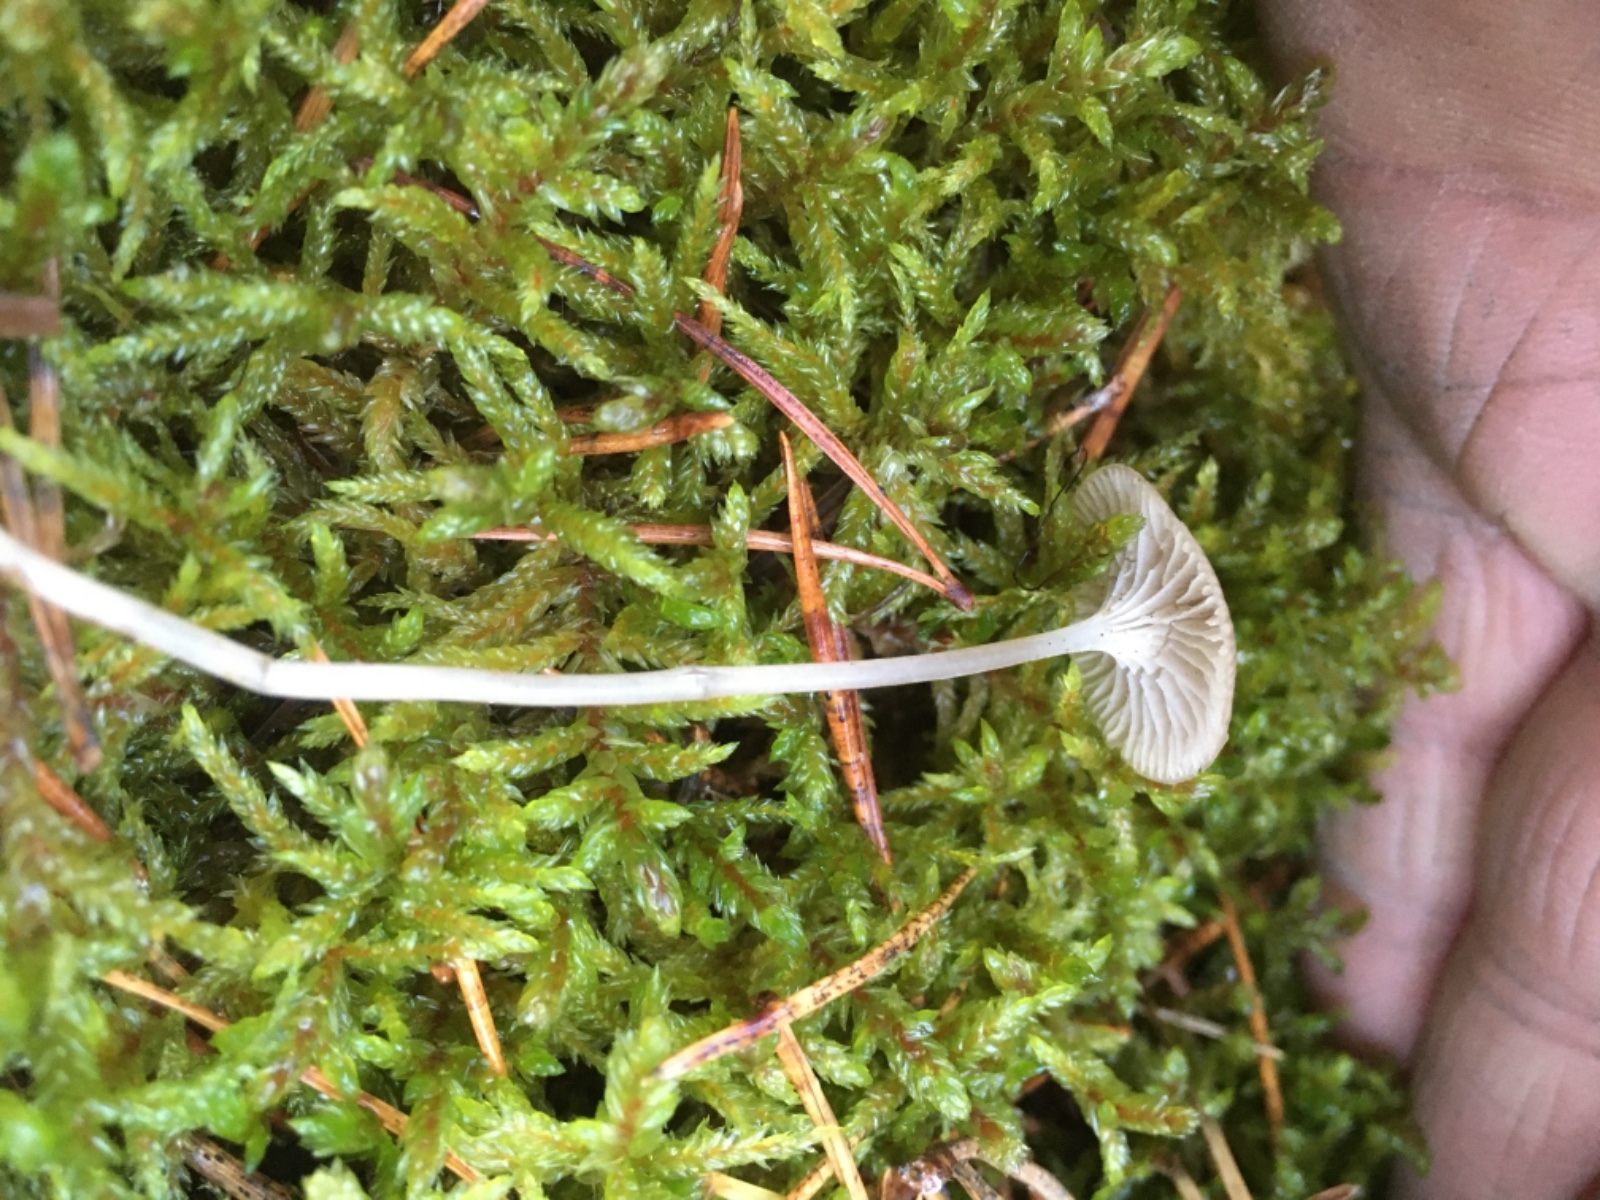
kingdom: Fungi
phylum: Basidiomycota
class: Agaricomycetes
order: Agaricales
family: Mycenaceae
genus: Mycena
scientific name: Mycena cinerella
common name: mel-huesvamp
